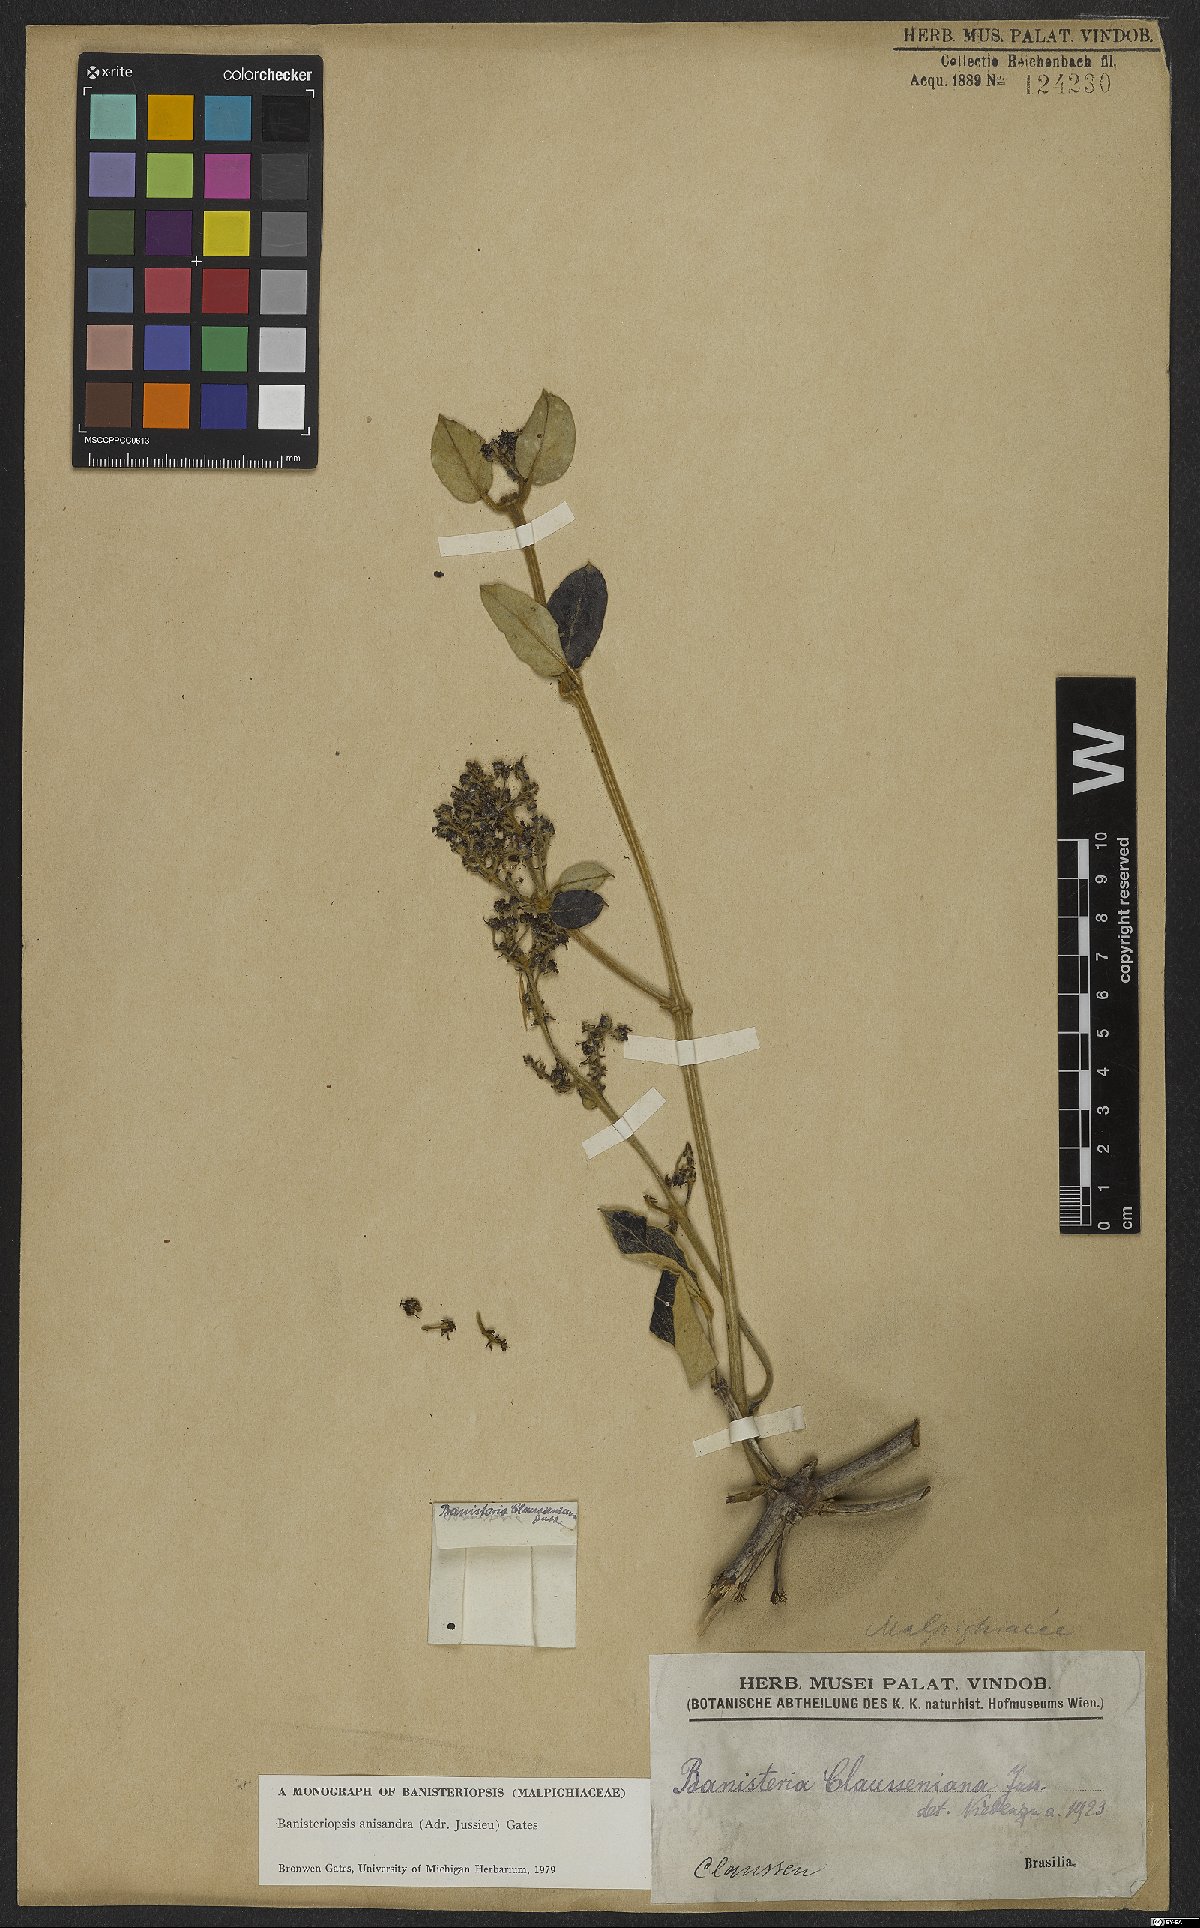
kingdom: Plantae
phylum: Tracheophyta
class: Magnoliopsida
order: Malpighiales
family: Malpighiaceae
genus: Banisteriopsis
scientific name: Banisteriopsis anisandra
